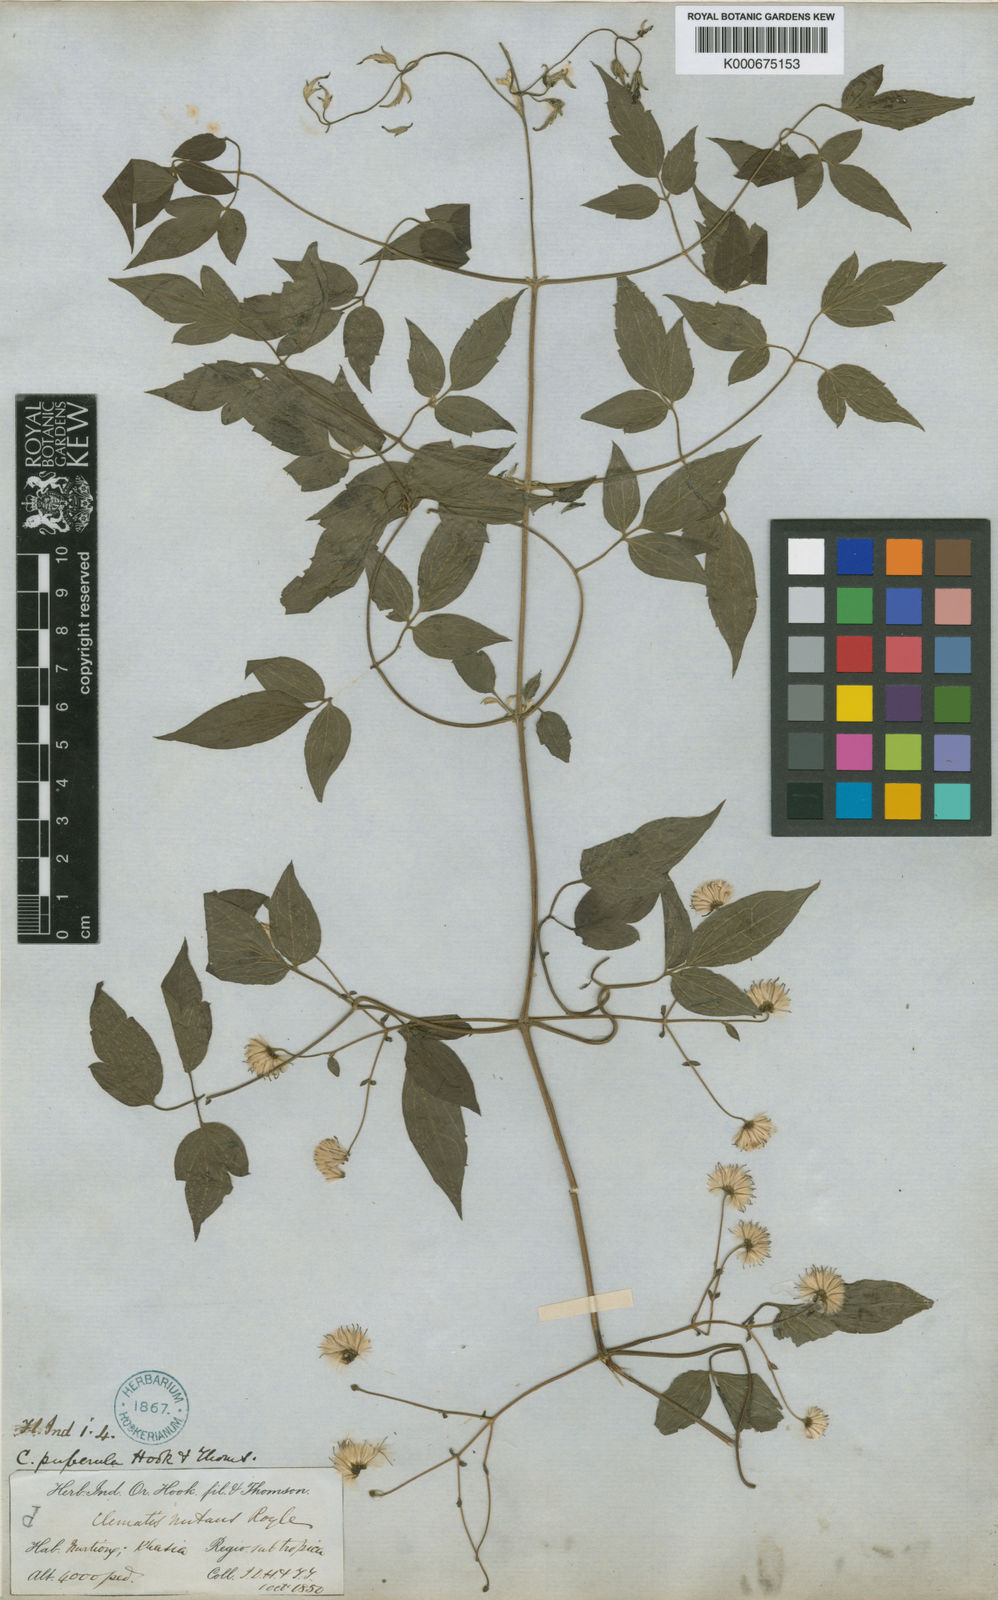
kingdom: Plantae
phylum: Tracheophyta
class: Magnoliopsida
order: Ranunculales
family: Ranunculaceae
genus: Clematis
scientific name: Clematis puberula
